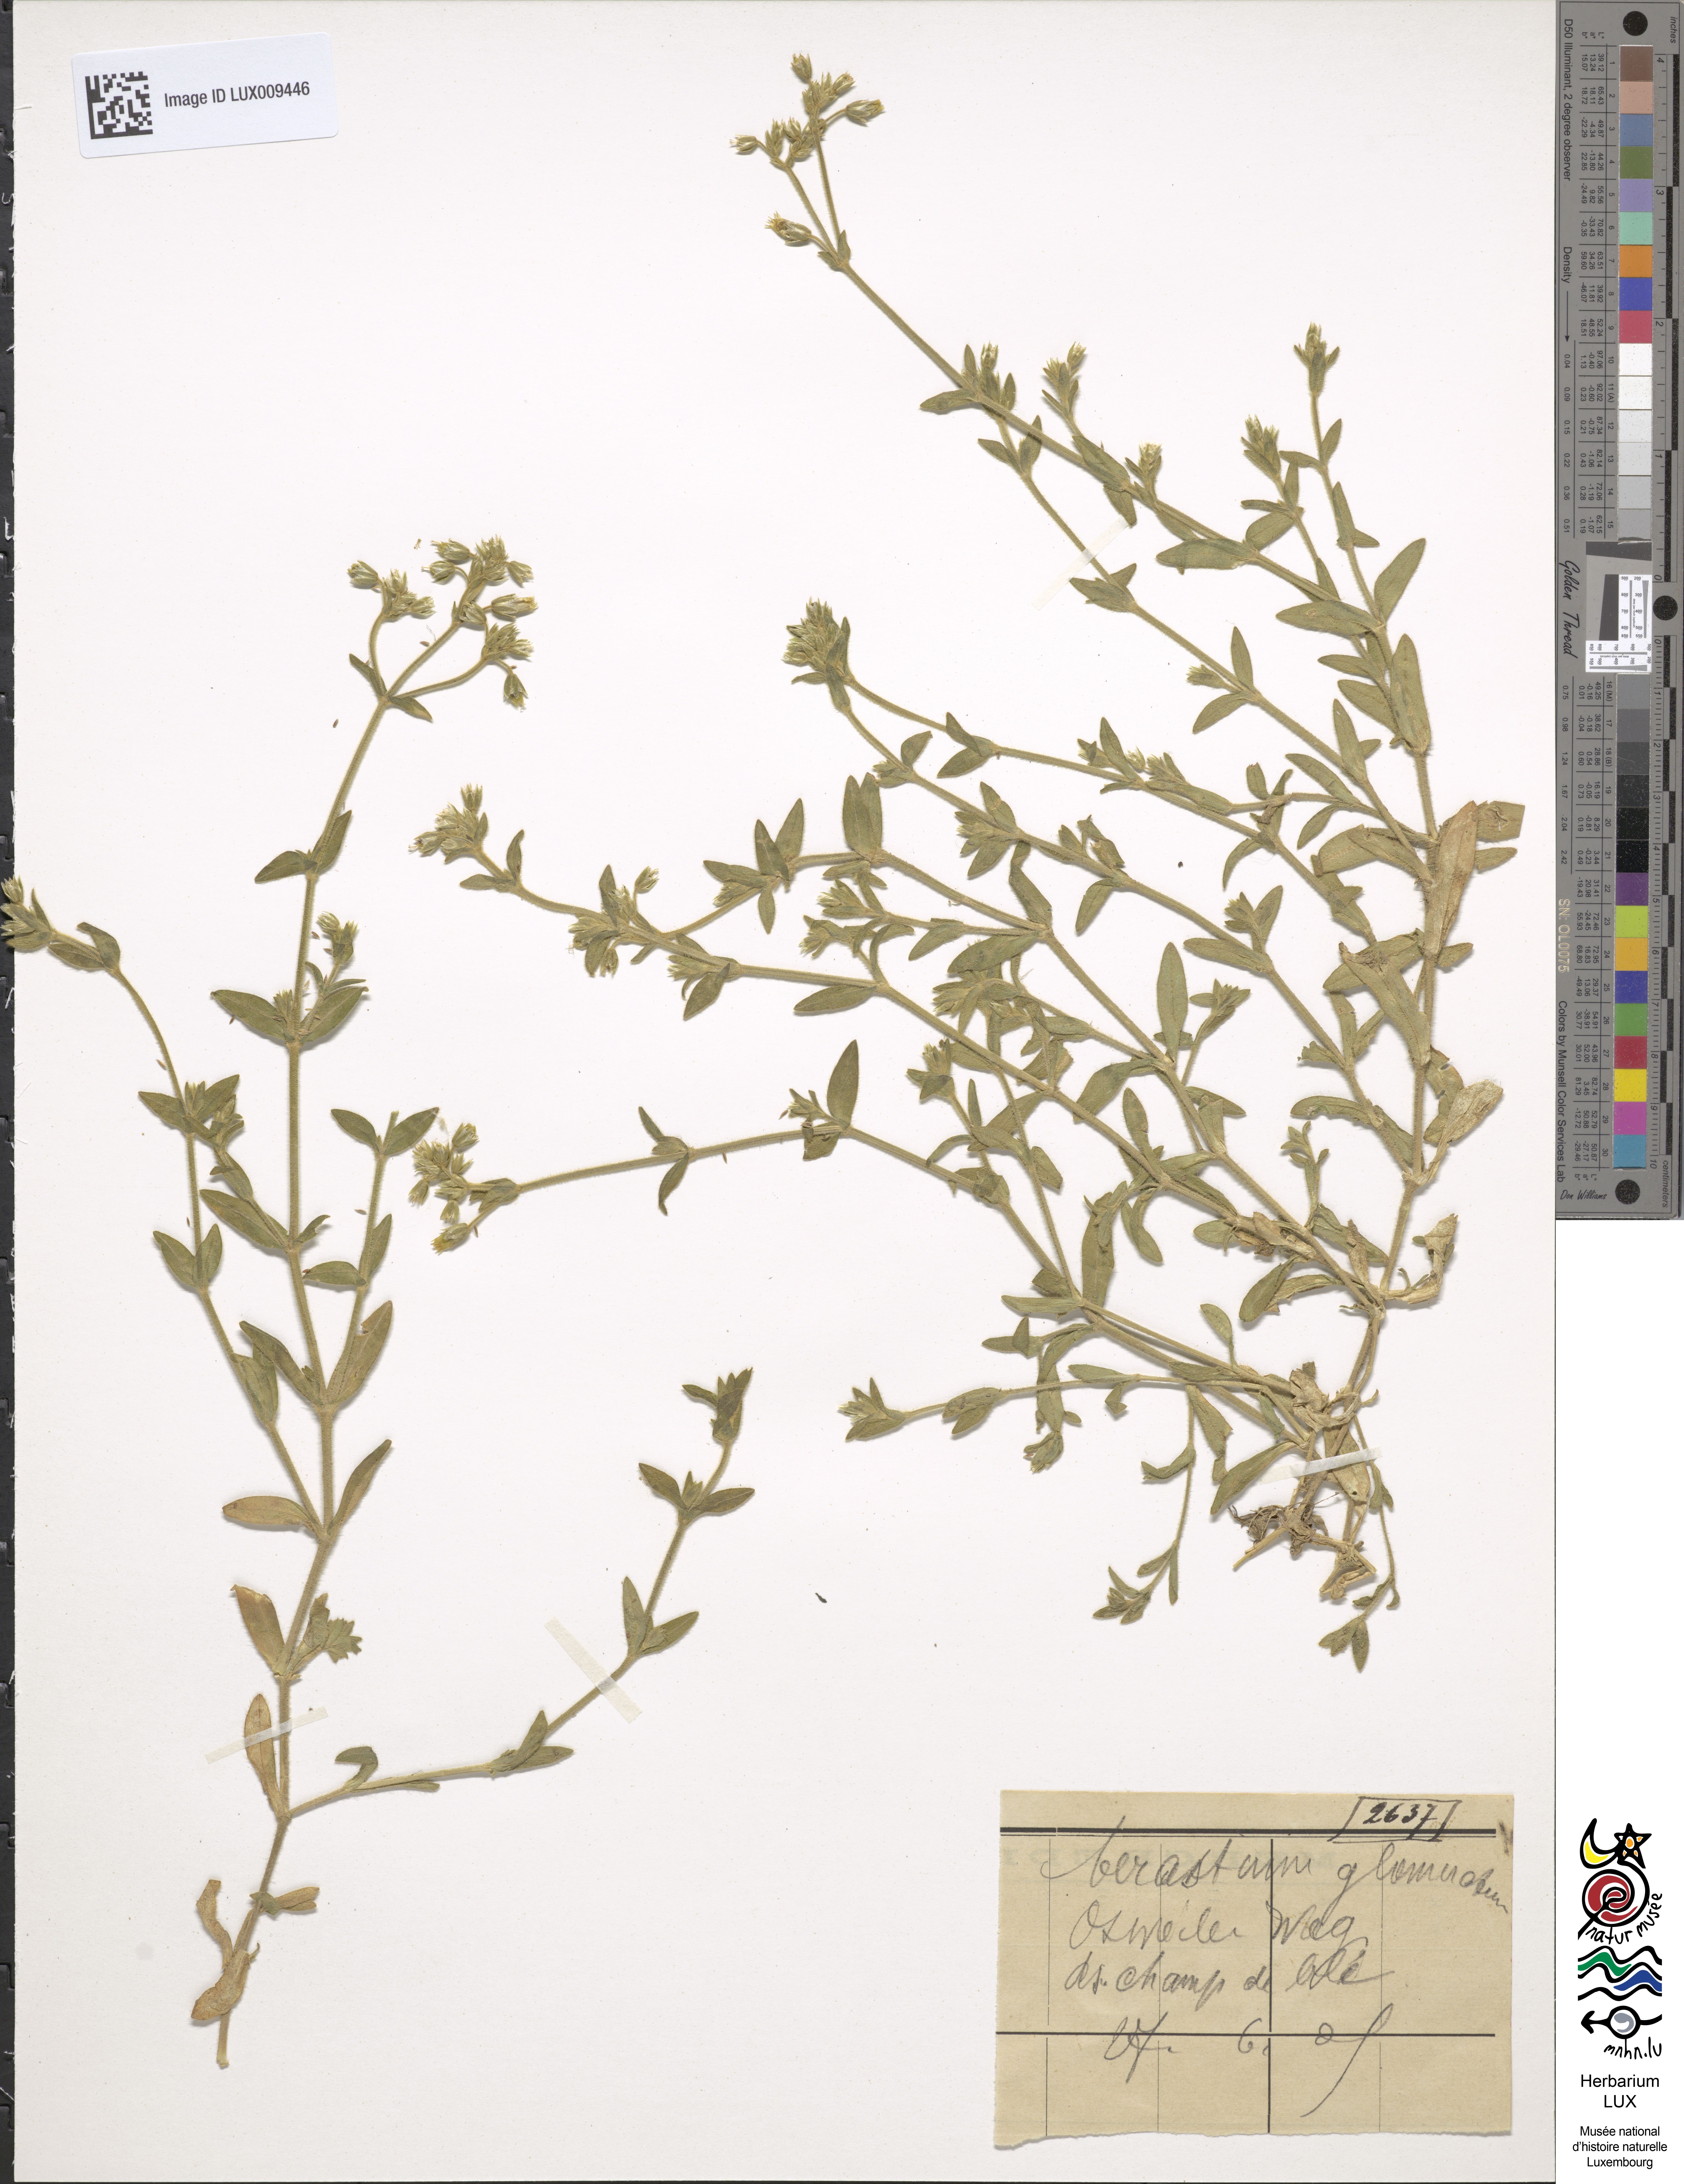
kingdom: Plantae
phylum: Tracheophyta
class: Magnoliopsida
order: Caryophyllales
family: Caryophyllaceae
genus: Cerastium
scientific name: Cerastium glomeratum
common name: Sticky chickweed
